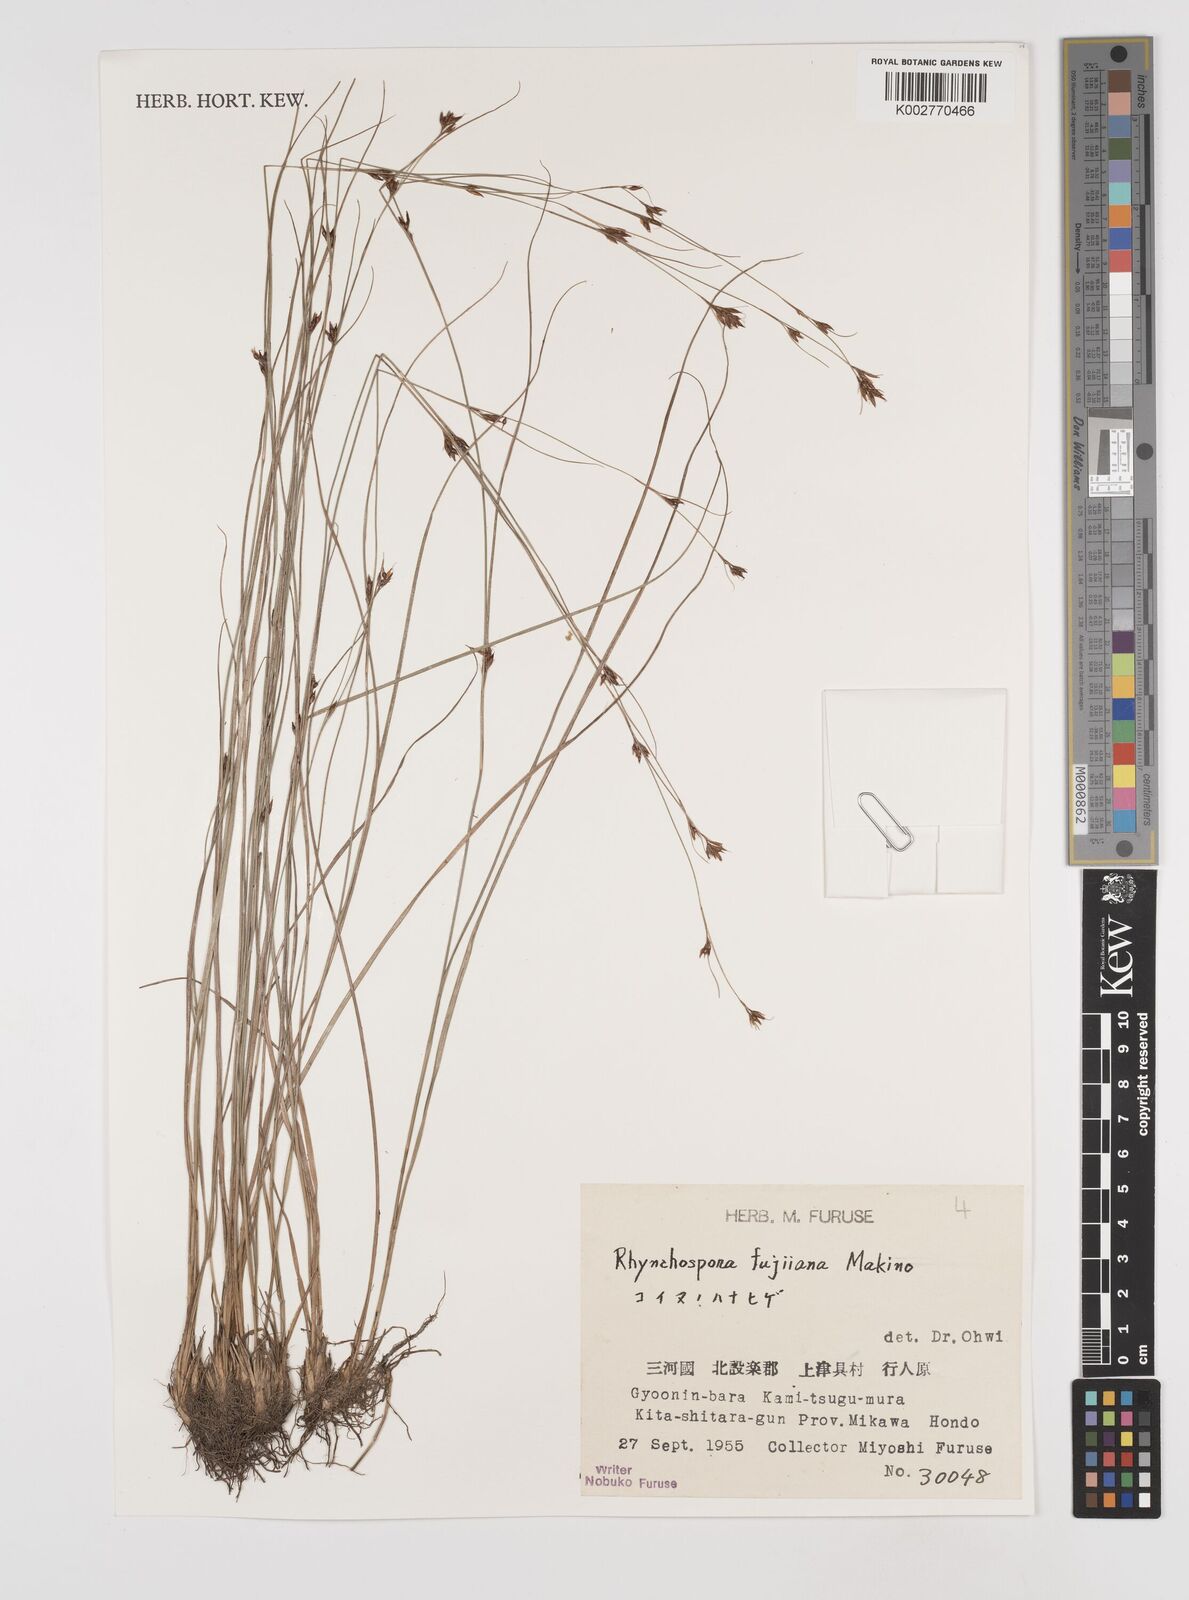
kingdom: Plantae
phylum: Tracheophyta
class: Liliopsida
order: Poales
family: Cyperaceae
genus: Rhynchospora
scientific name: Rhynchospora fujiiana
